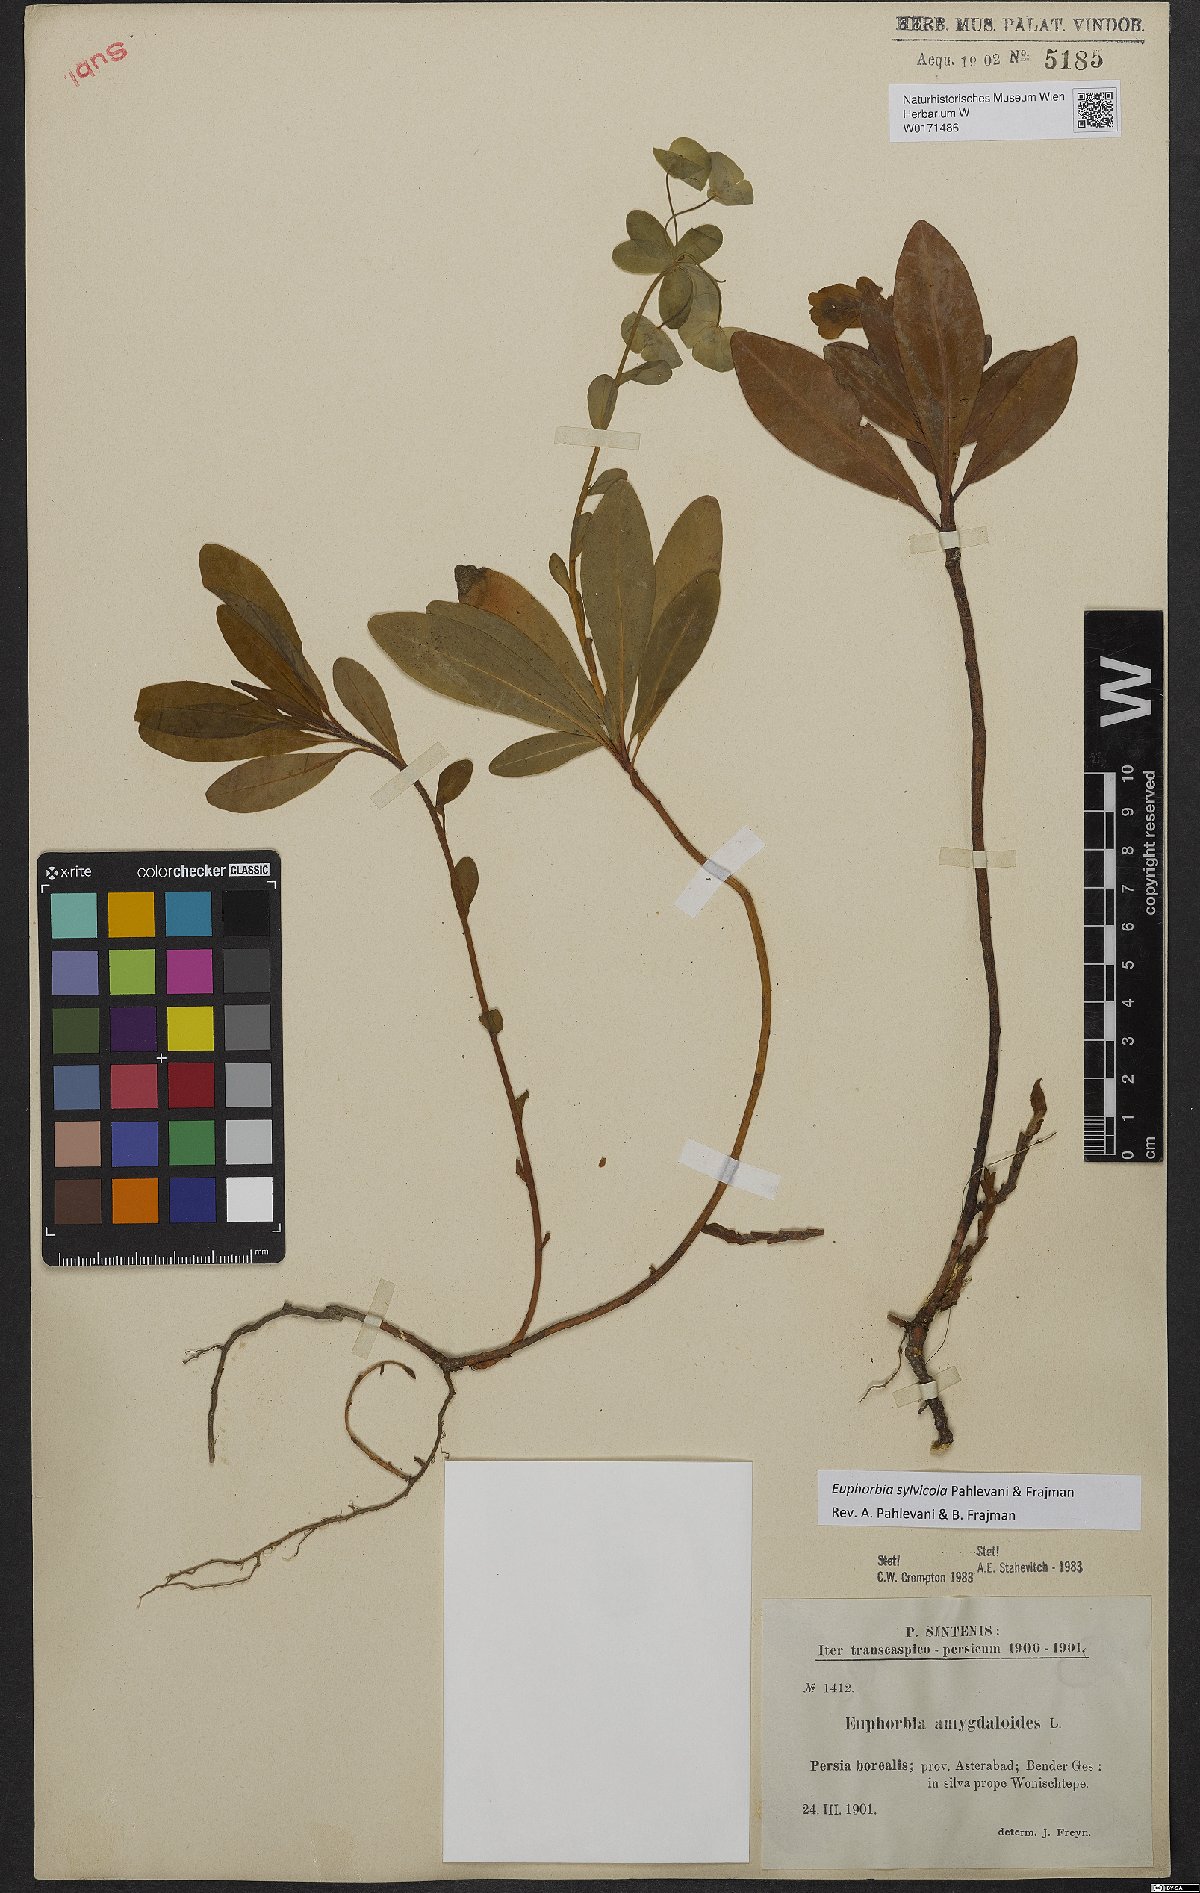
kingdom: Plantae
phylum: Tracheophyta
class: Magnoliopsida
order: Malpighiales
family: Euphorbiaceae
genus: Euphorbia
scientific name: Euphorbia juttae
